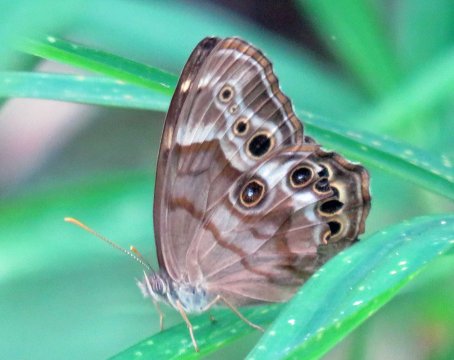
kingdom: Animalia
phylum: Arthropoda
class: Insecta
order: Lepidoptera
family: Nymphalidae
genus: Enodia
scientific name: Enodia portlandia
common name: Southern Pearly Eye
